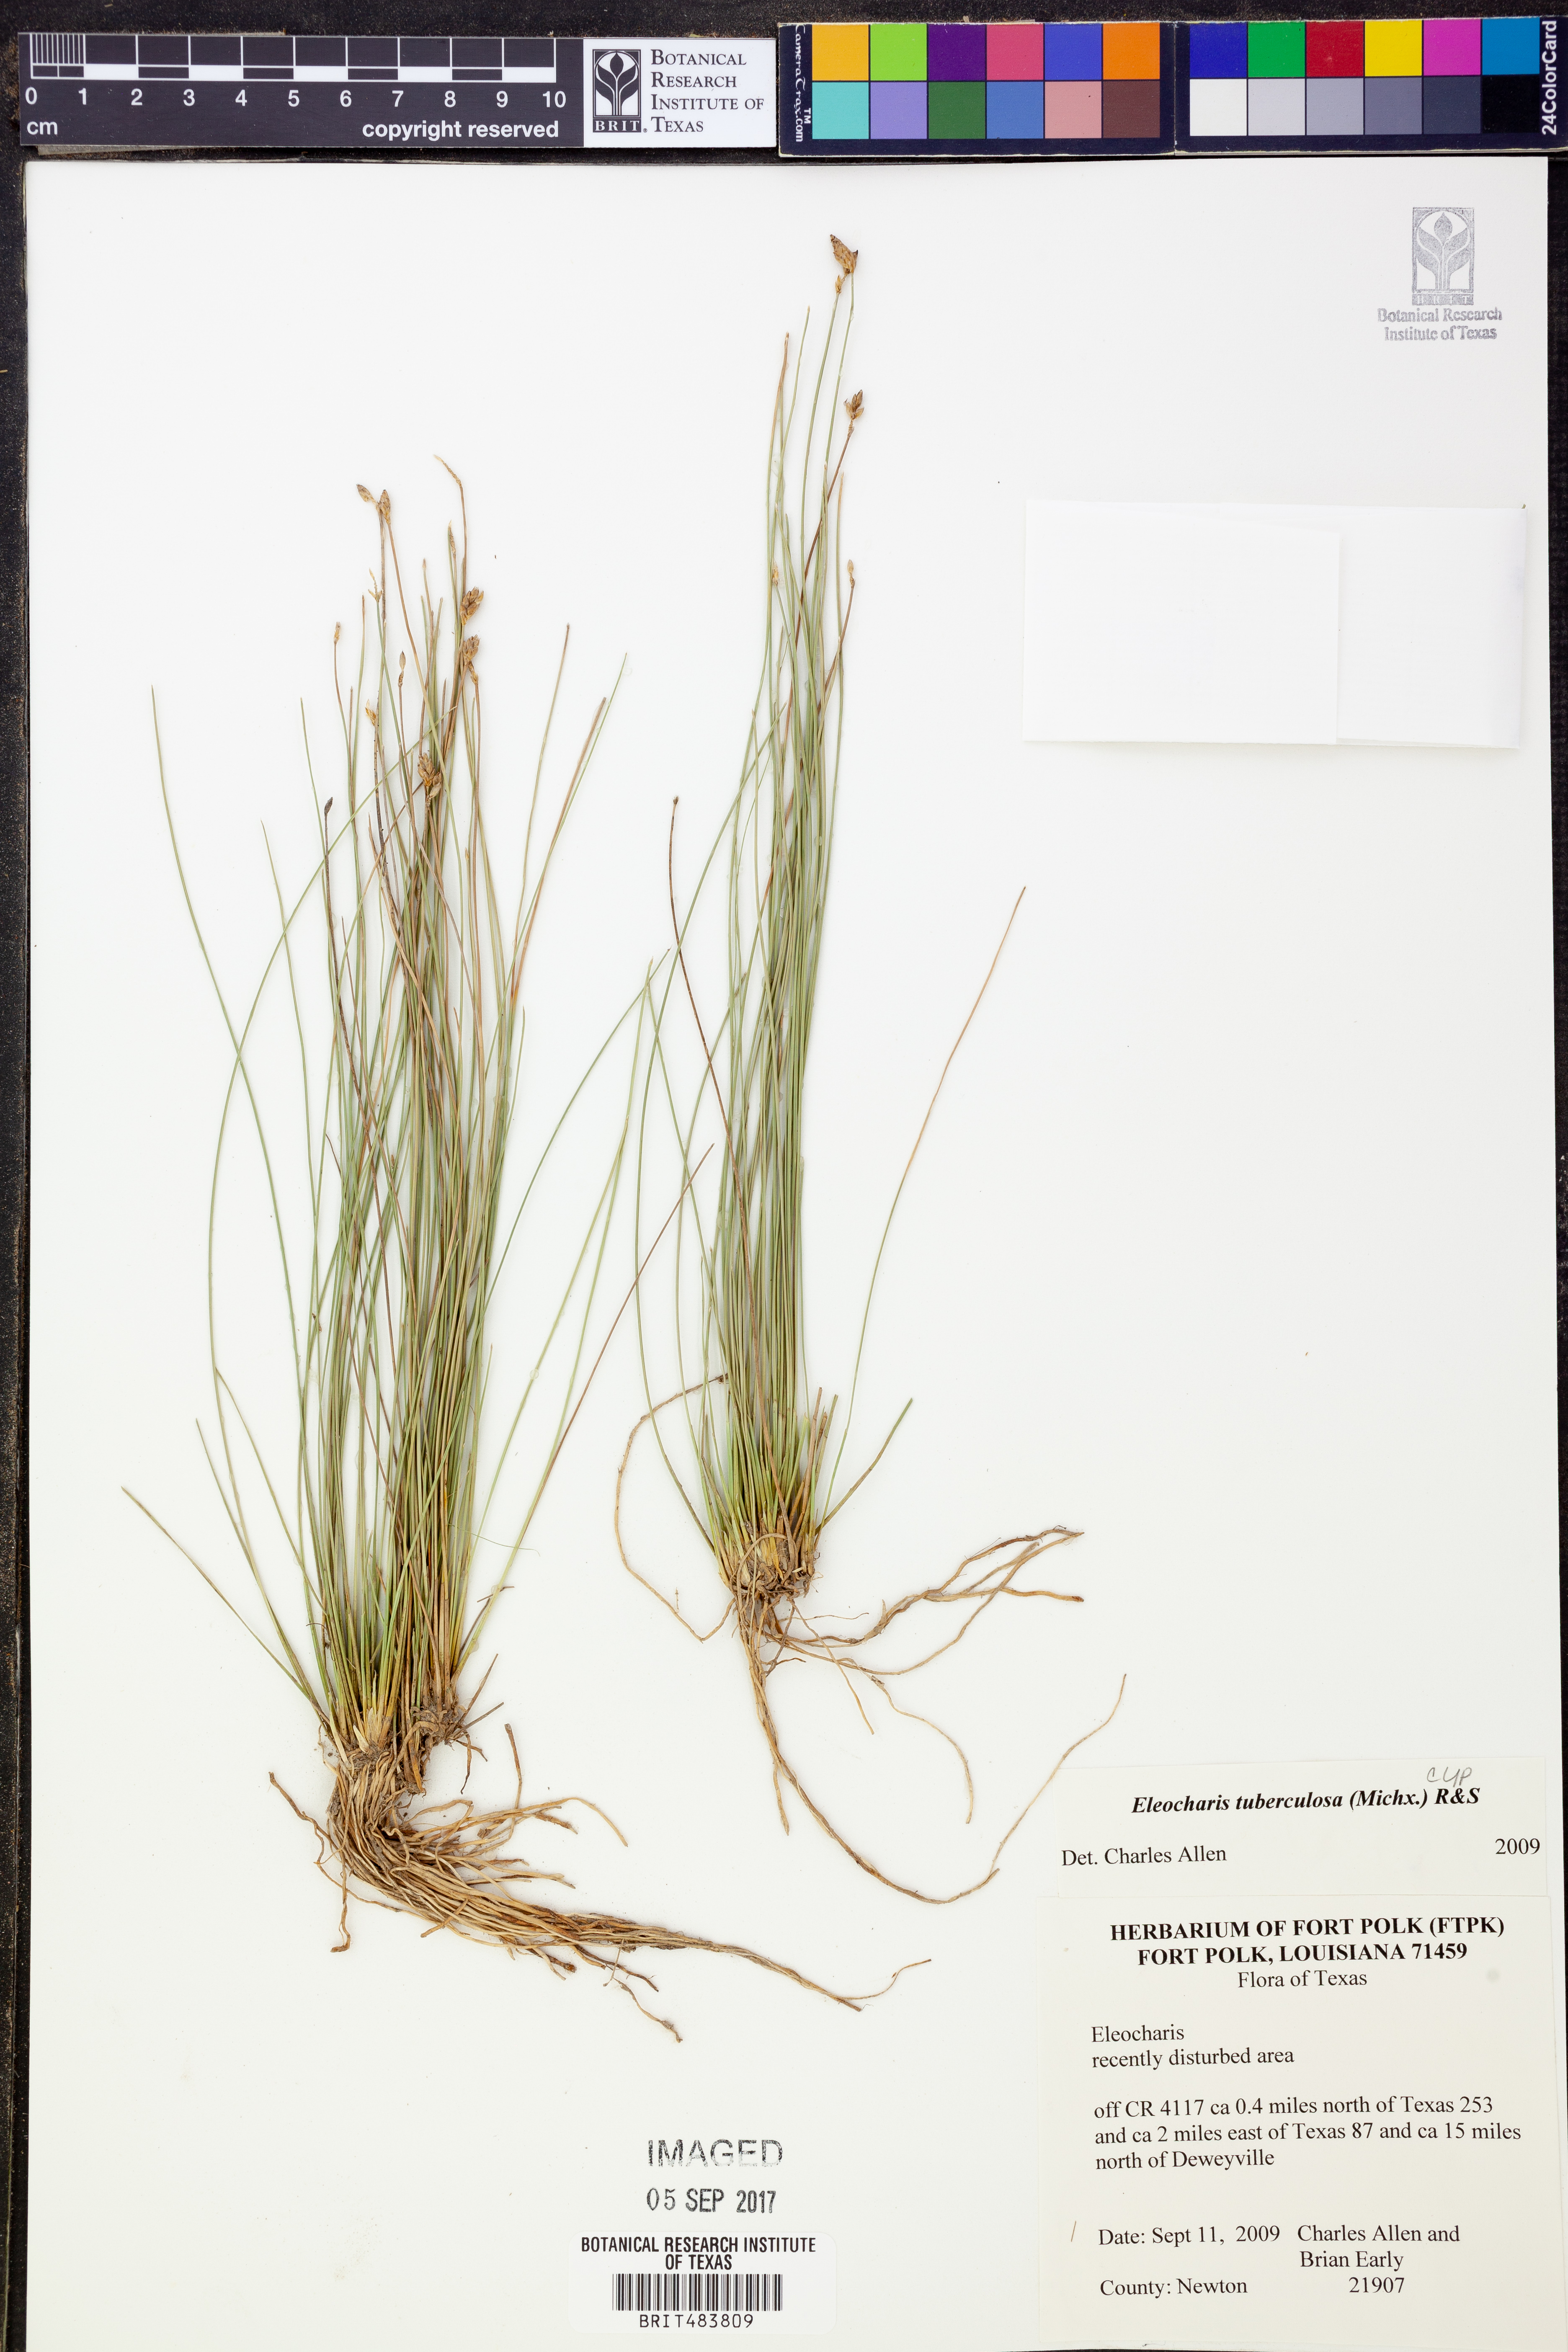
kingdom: Plantae
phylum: Tracheophyta
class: Liliopsida
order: Poales
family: Cyperaceae
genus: Eleocharis
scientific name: Eleocharis tuberculosa
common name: Cone-cup spikerush
